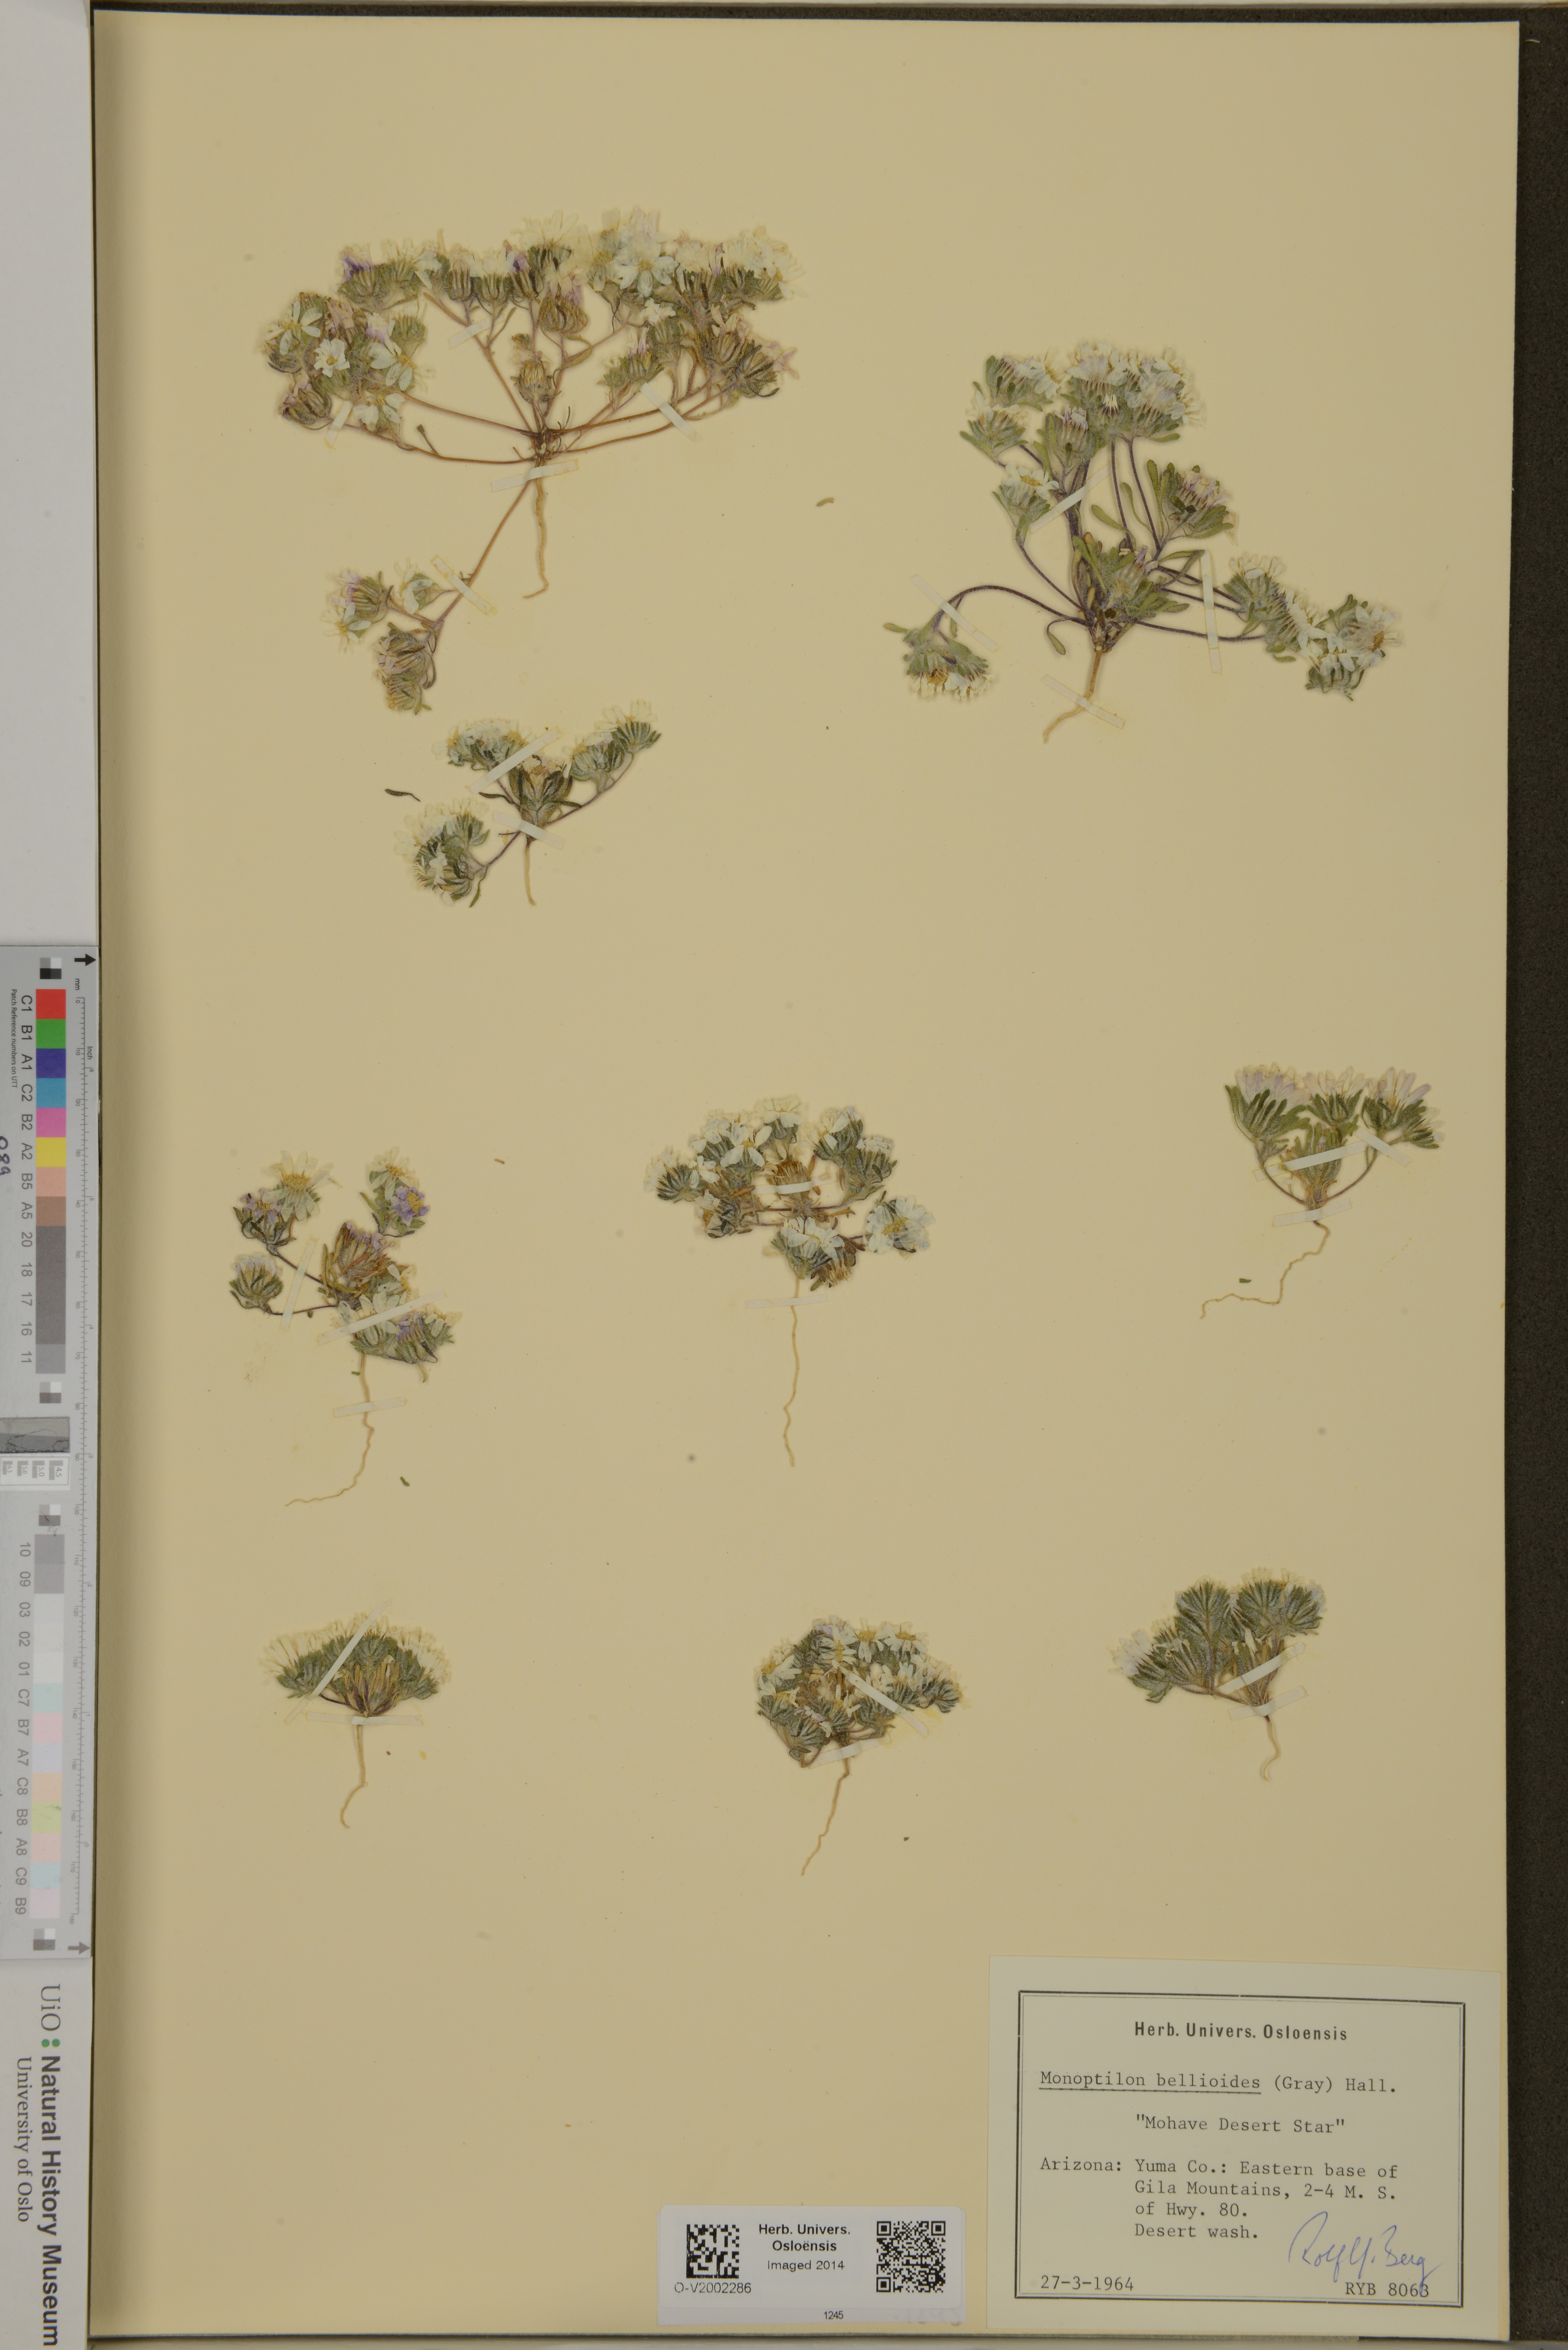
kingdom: Plantae
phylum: Tracheophyta
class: Magnoliopsida
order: Asterales
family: Asteraceae
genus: Monoptilon
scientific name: Monoptilon bellioides
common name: Bristly desertstar
